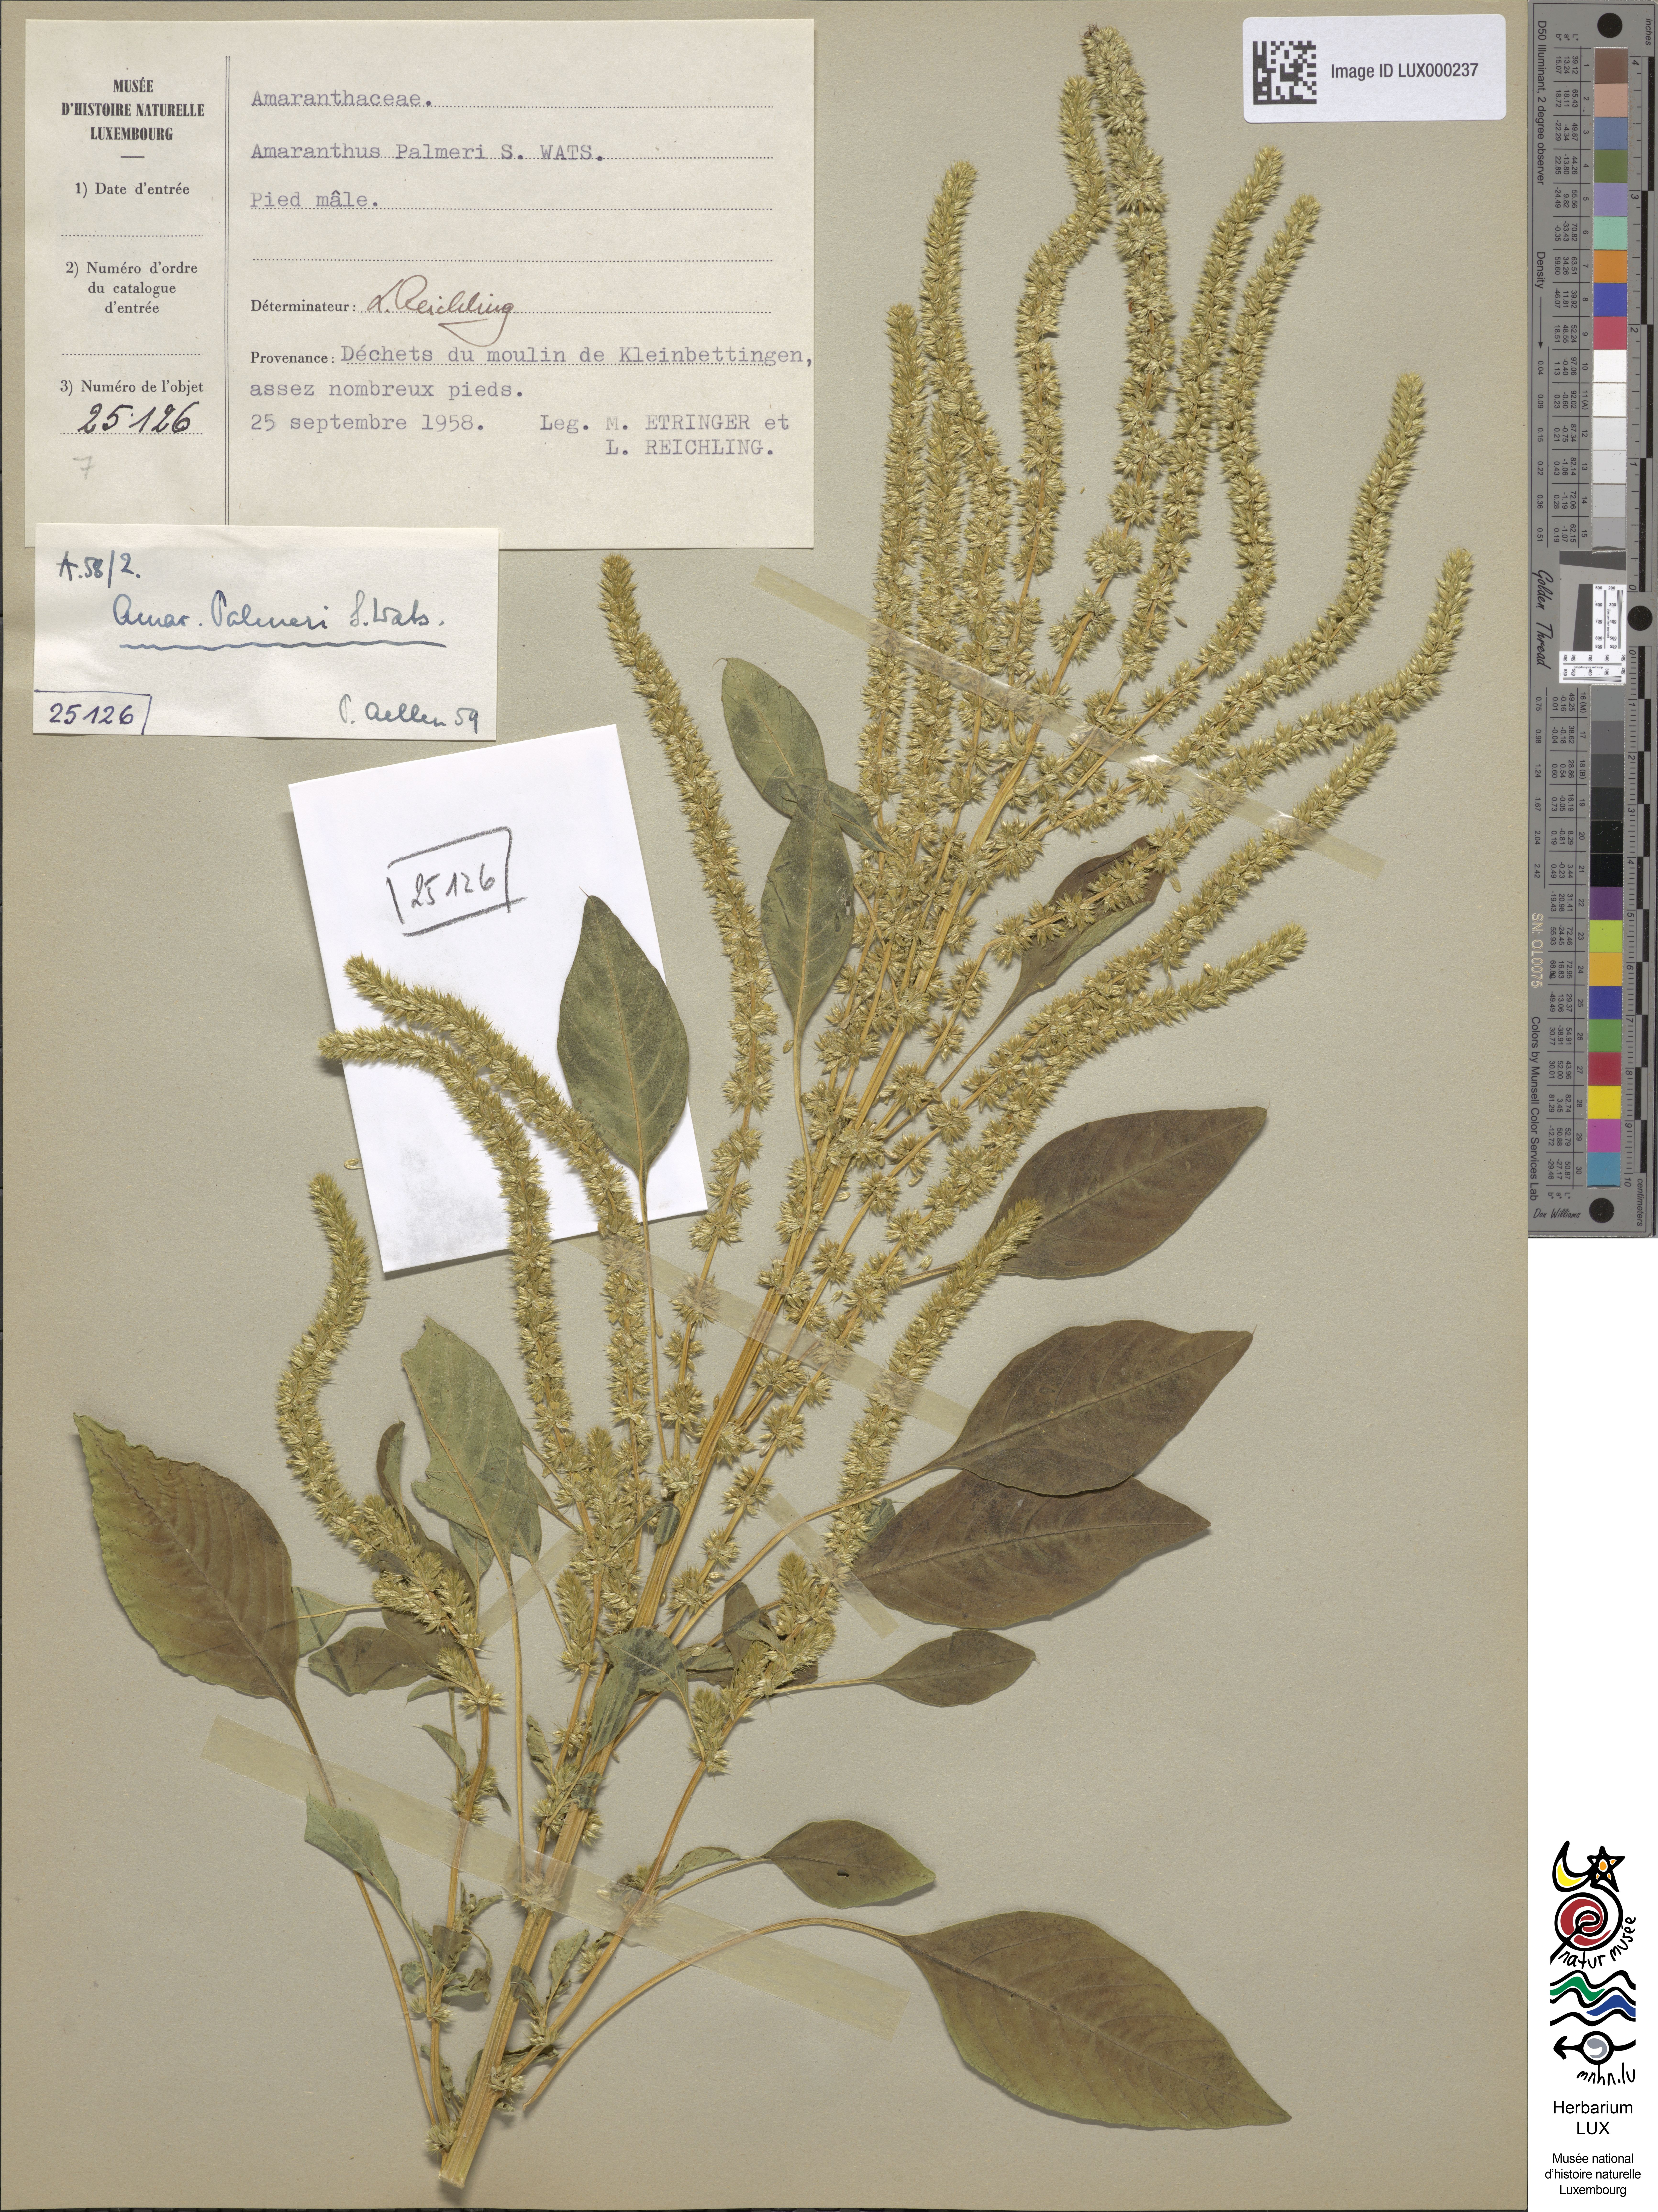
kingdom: Plantae
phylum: Tracheophyta
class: Magnoliopsida
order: Caryophyllales
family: Amaranthaceae
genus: Amaranthus
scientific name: Amaranthus palmeri
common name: Dioecious amaranth
